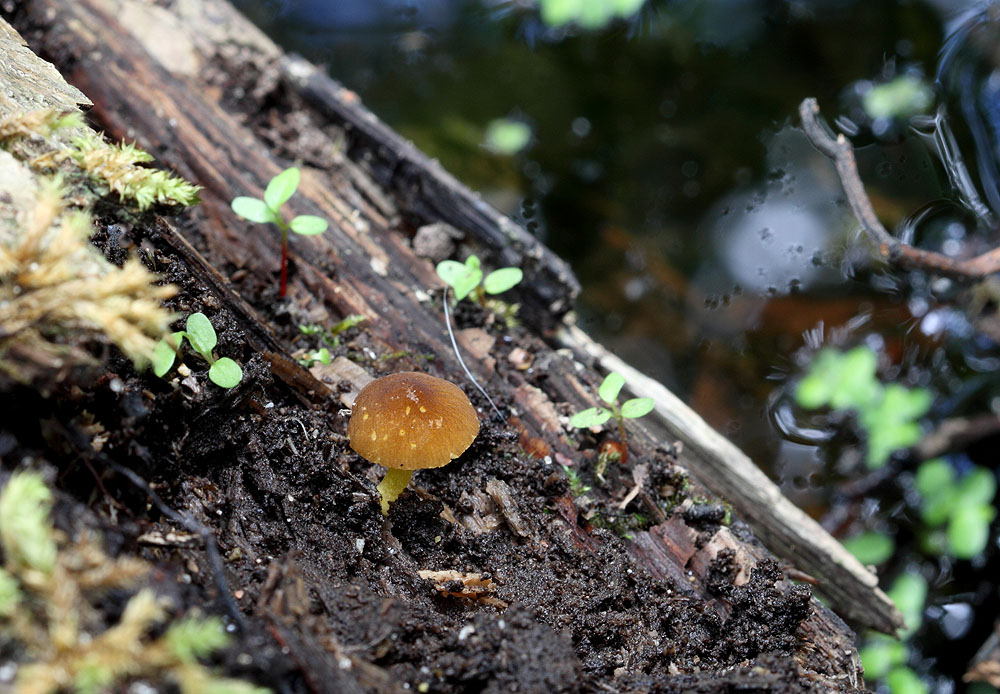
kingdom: Fungi
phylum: Basidiomycota
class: Agaricomycetes
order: Agaricales
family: Pluteaceae
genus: Pluteus
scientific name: Pluteus romellii
